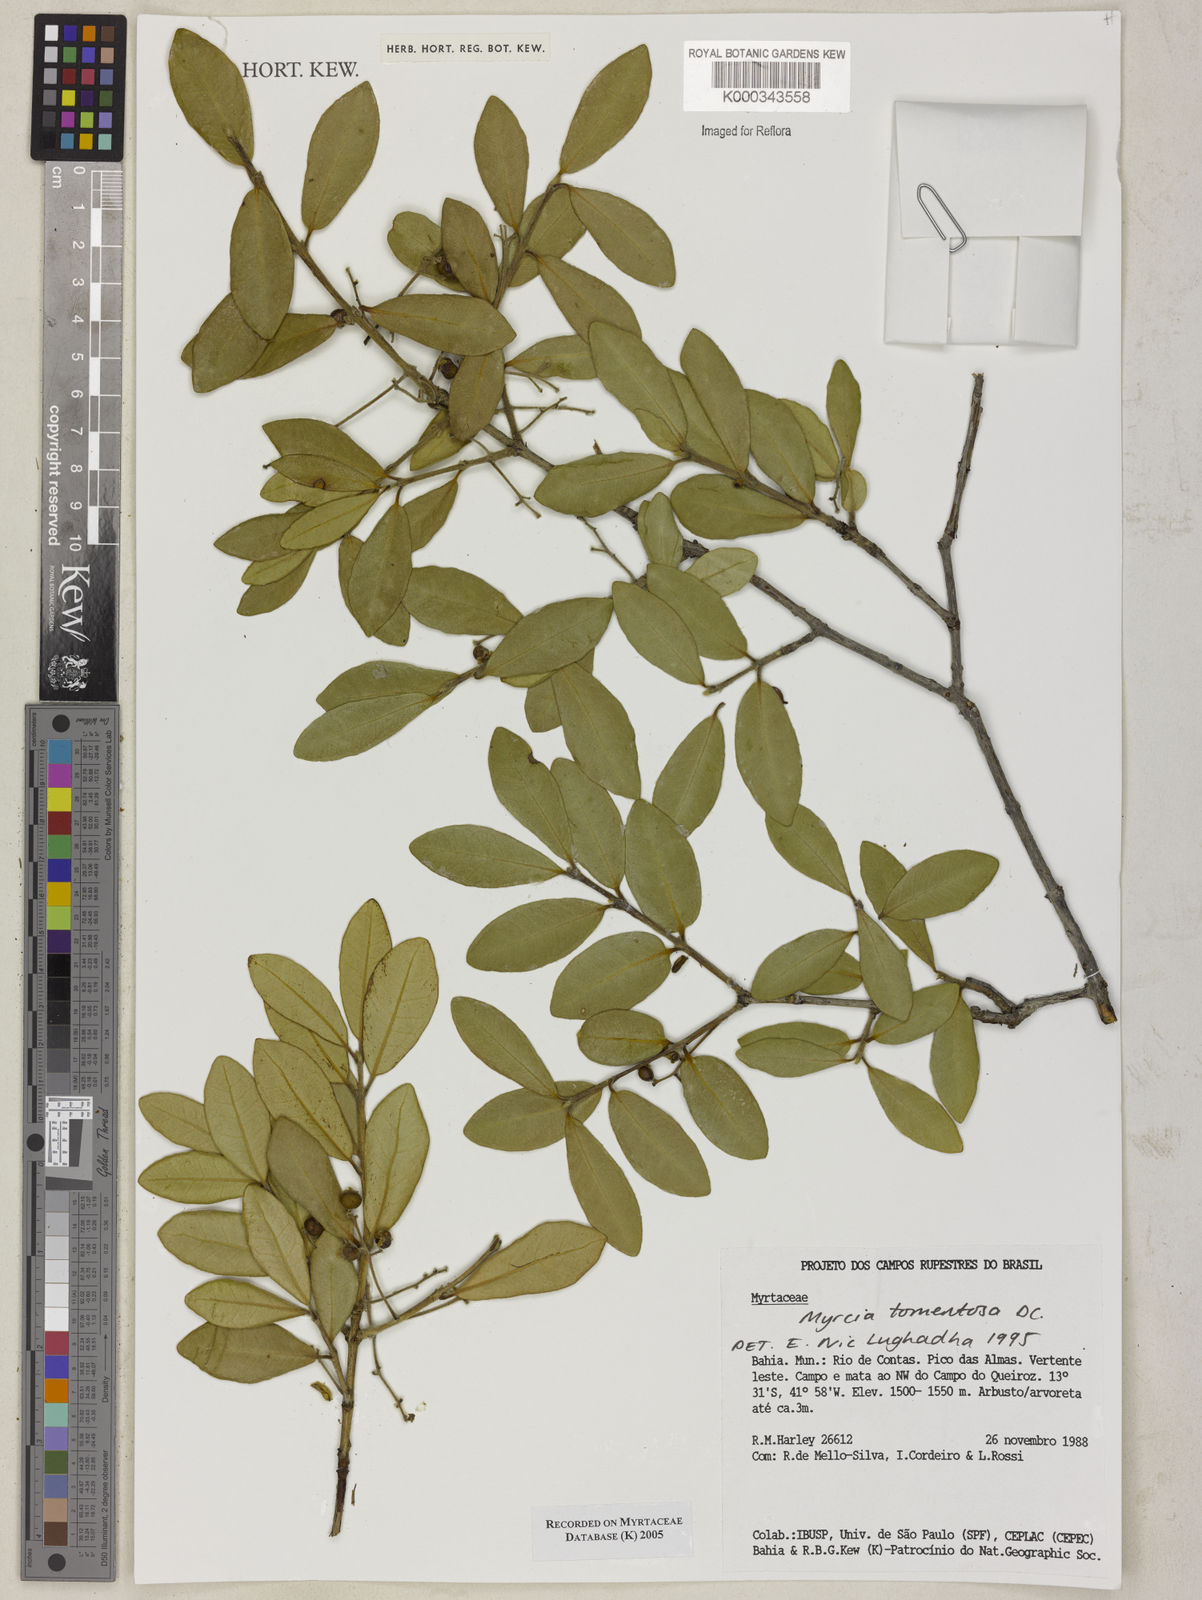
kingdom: Plantae
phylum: Tracheophyta
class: Magnoliopsida
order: Myrtales
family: Myrtaceae
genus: Myrcia
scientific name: Myrcia tomentosa
